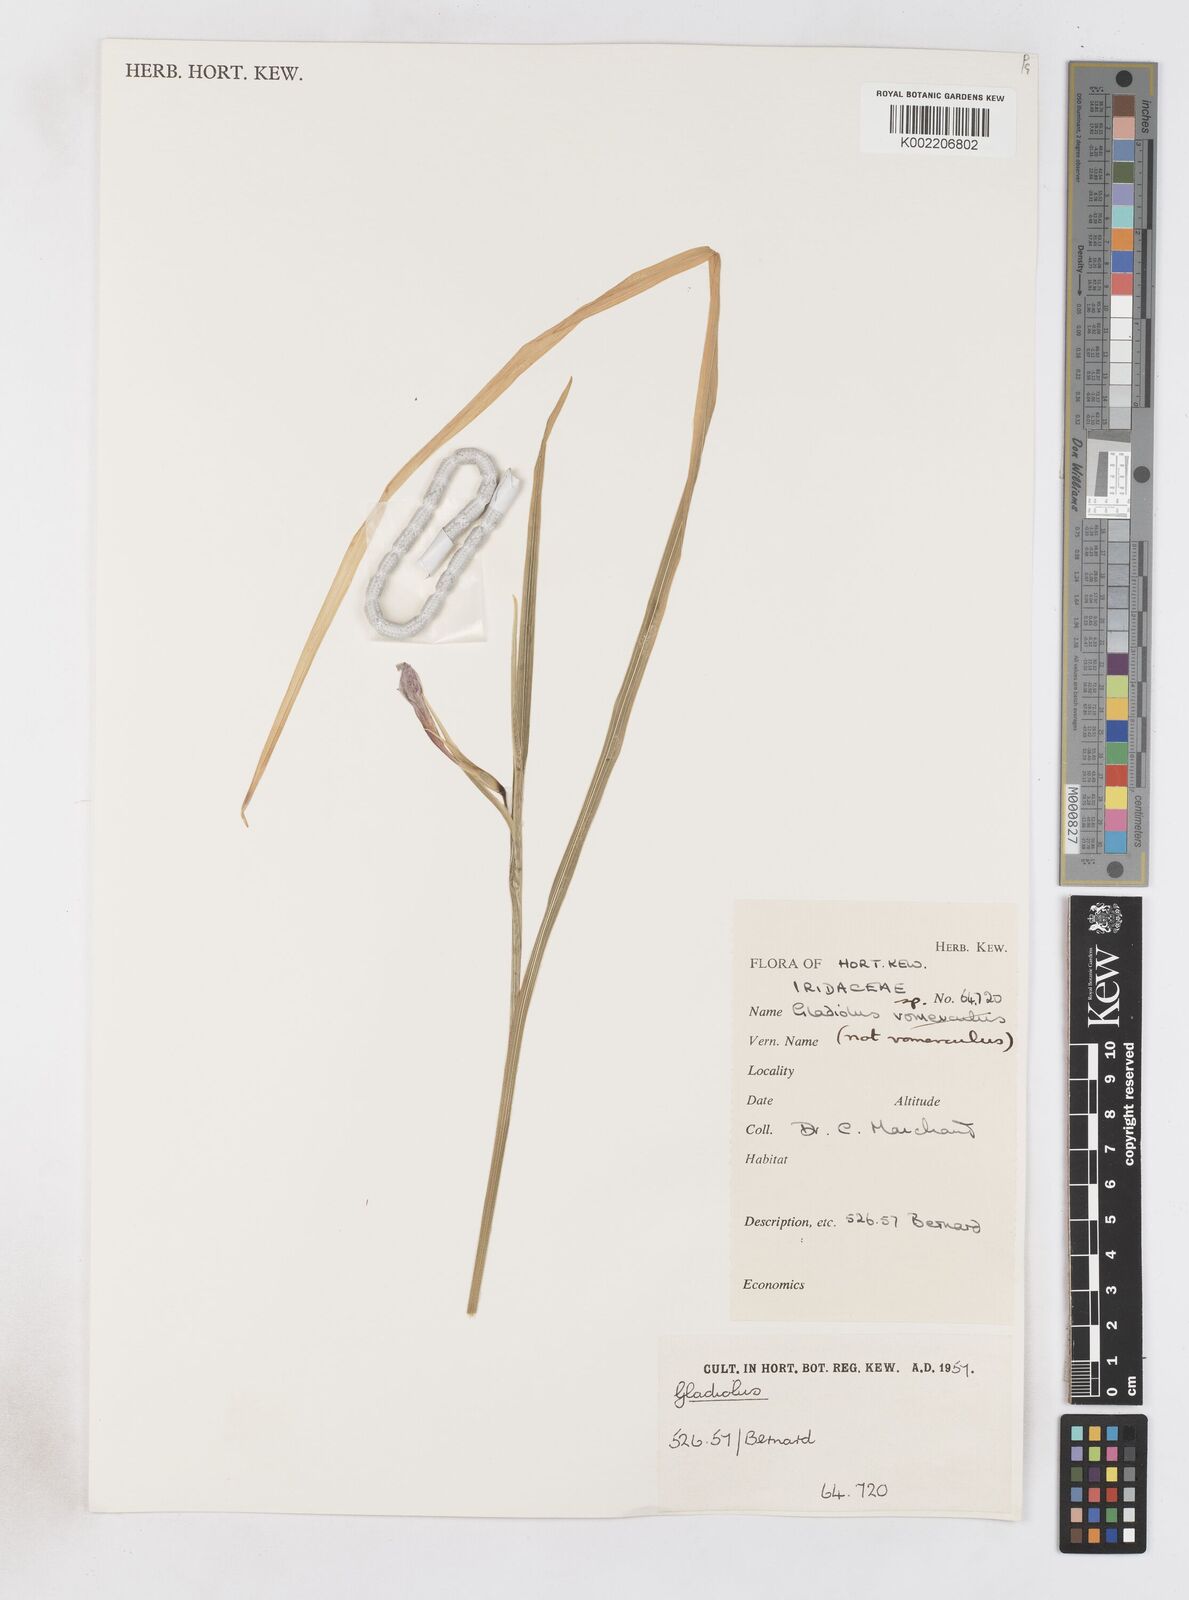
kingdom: Plantae
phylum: Tracheophyta
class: Liliopsida
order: Asparagales
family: Iridaceae
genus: Gladiolus
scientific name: Gladiolus
